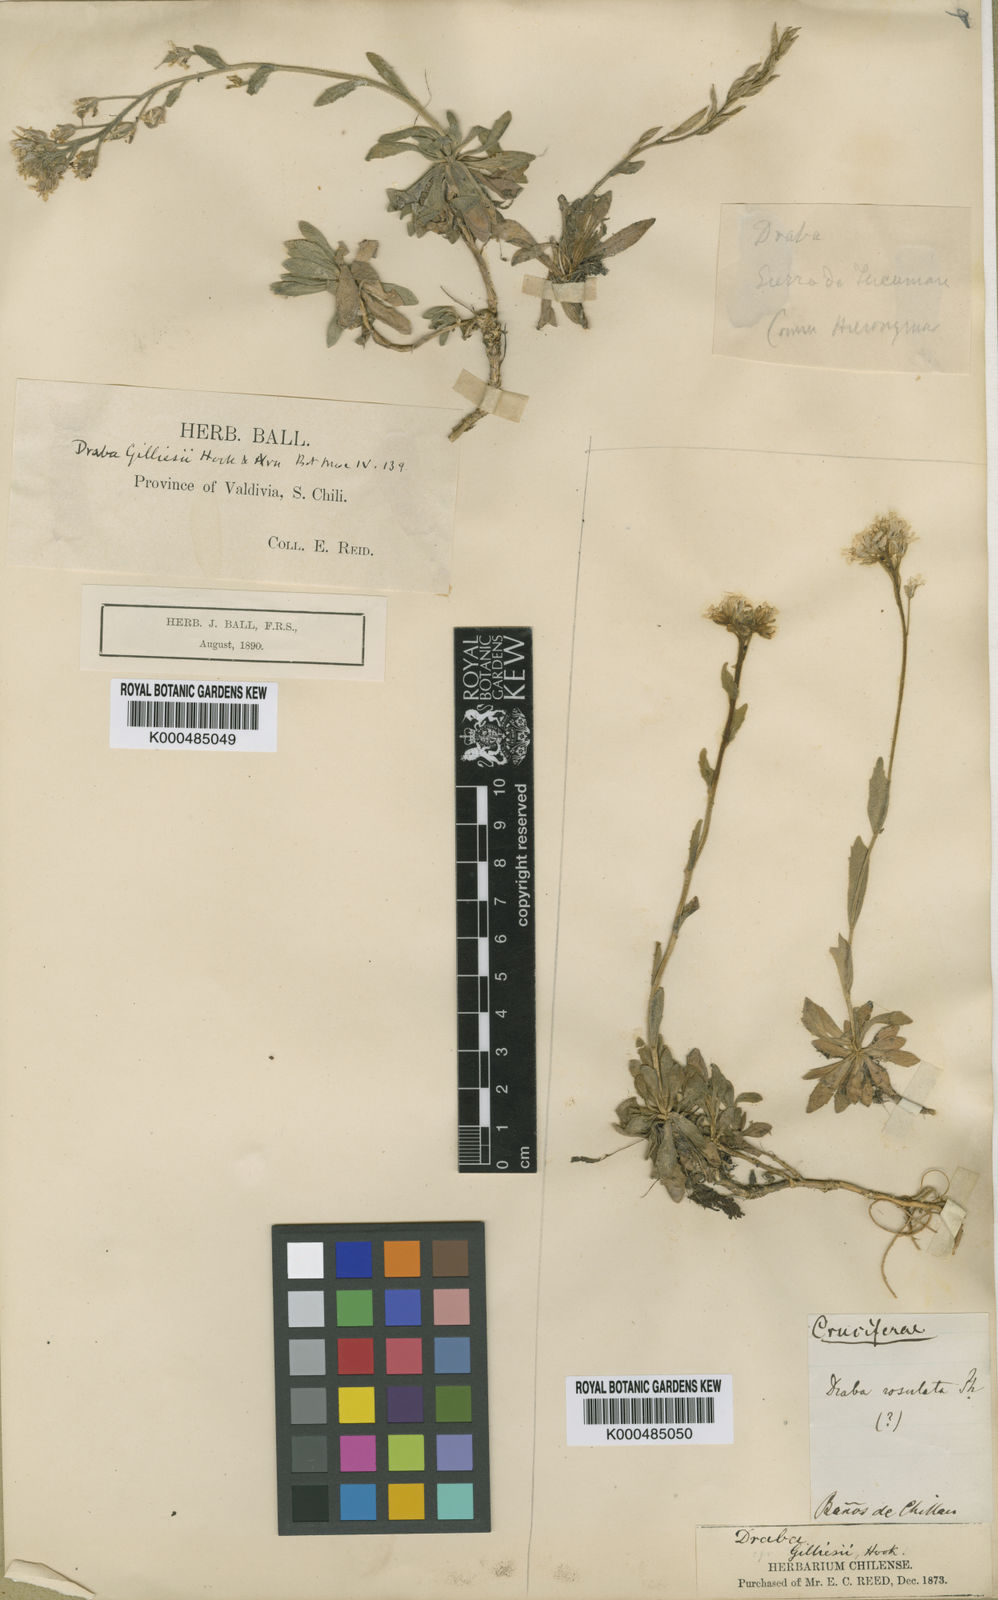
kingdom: Plantae
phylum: Tracheophyta
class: Magnoliopsida
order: Brassicales
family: Brassicaceae
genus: Draba
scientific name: Draba gilliesii
